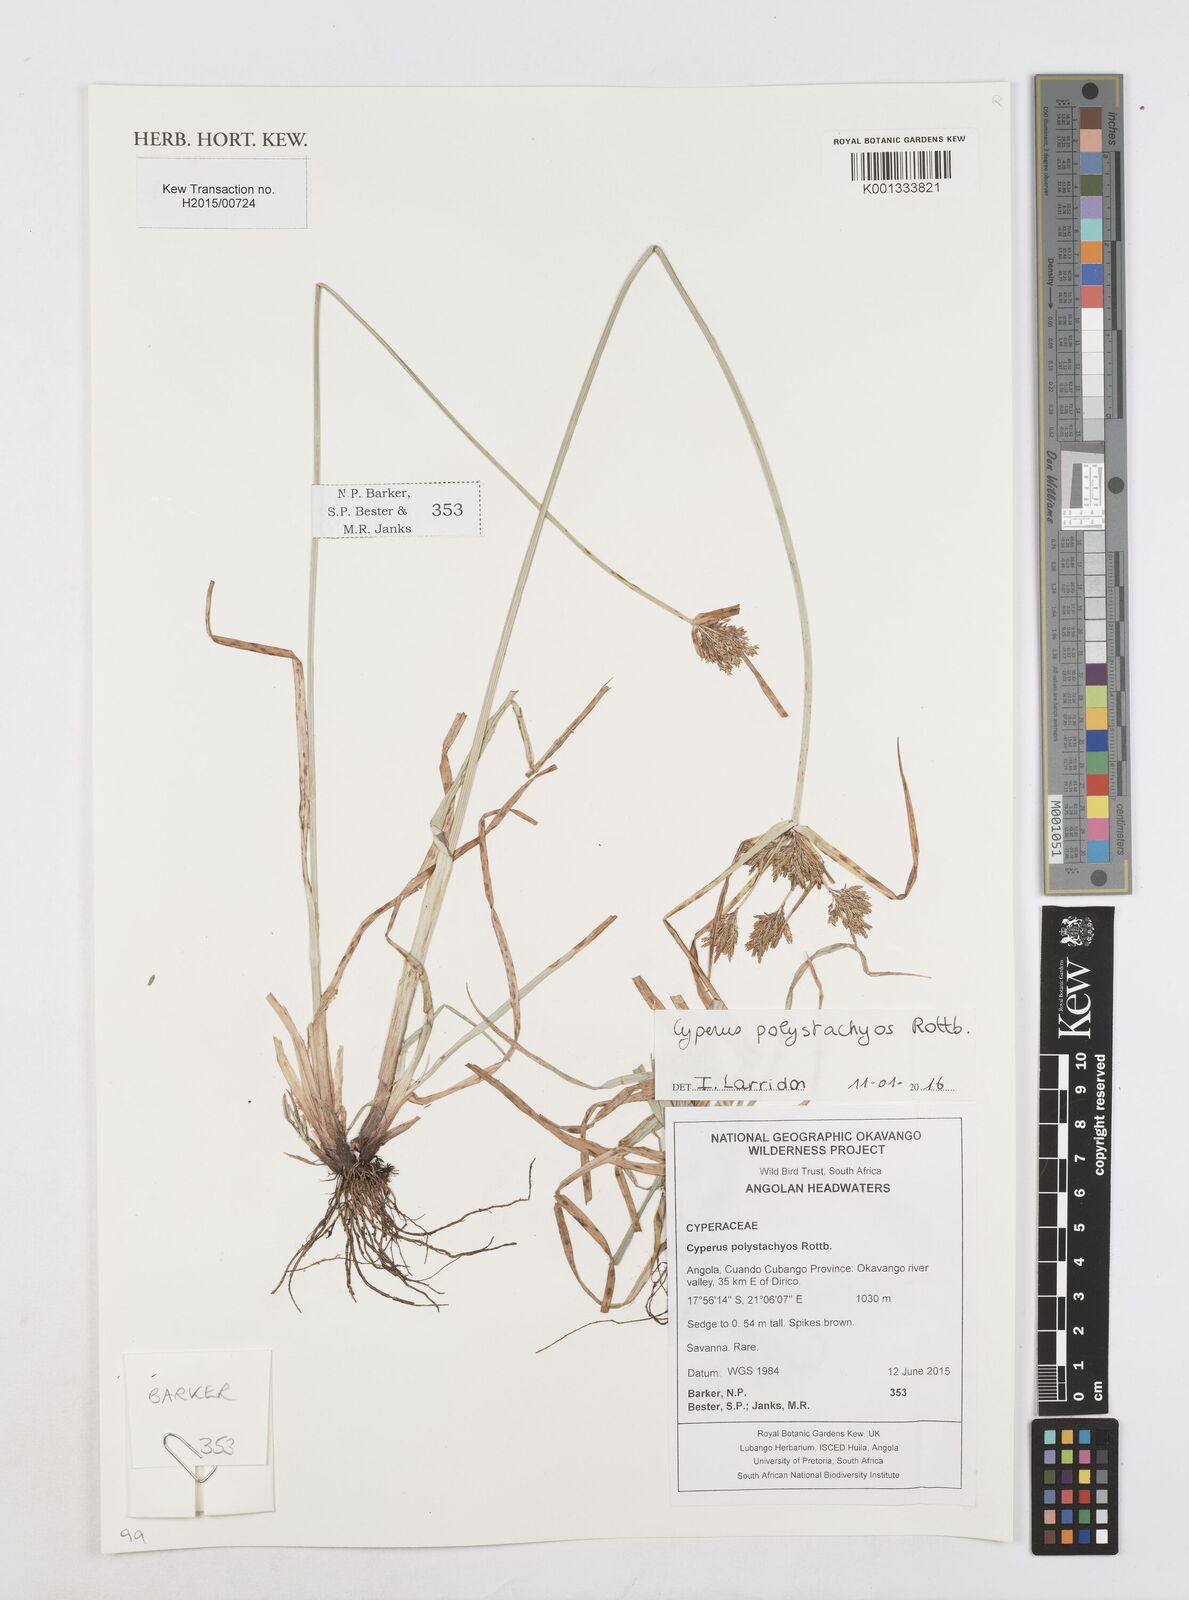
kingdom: Plantae
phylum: Tracheophyta
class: Liliopsida
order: Poales
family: Cyperaceae
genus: Cyperus
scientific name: Cyperus polystachyos
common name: Bunchy flat sedge
